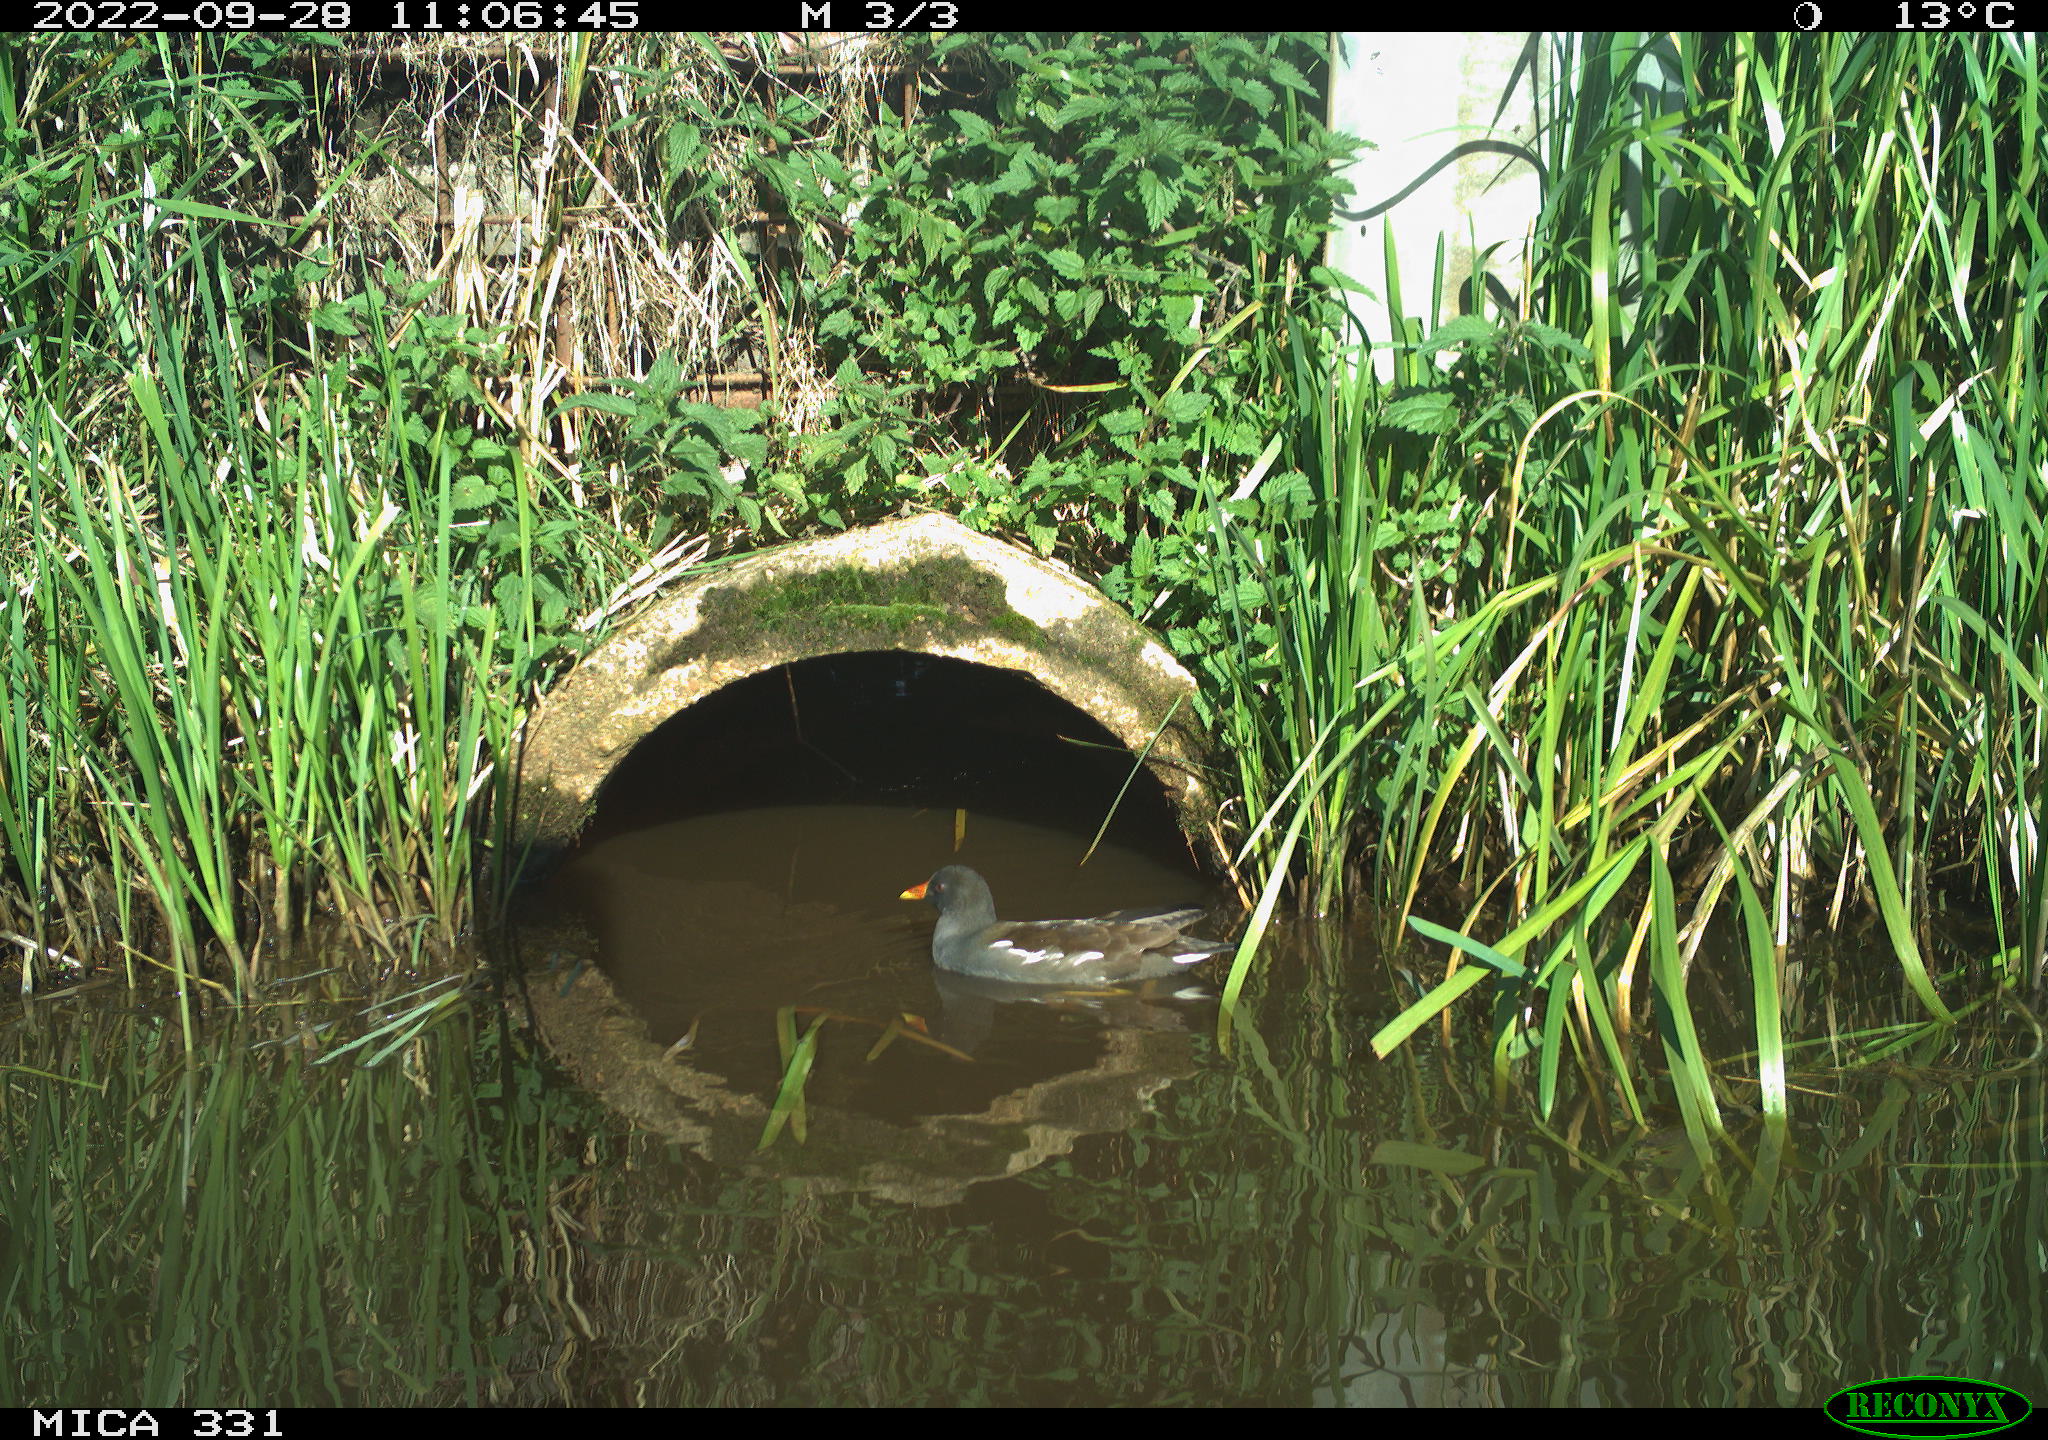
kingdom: Animalia
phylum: Chordata
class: Aves
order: Gruiformes
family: Rallidae
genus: Gallinula
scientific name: Gallinula chloropus
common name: Common moorhen
